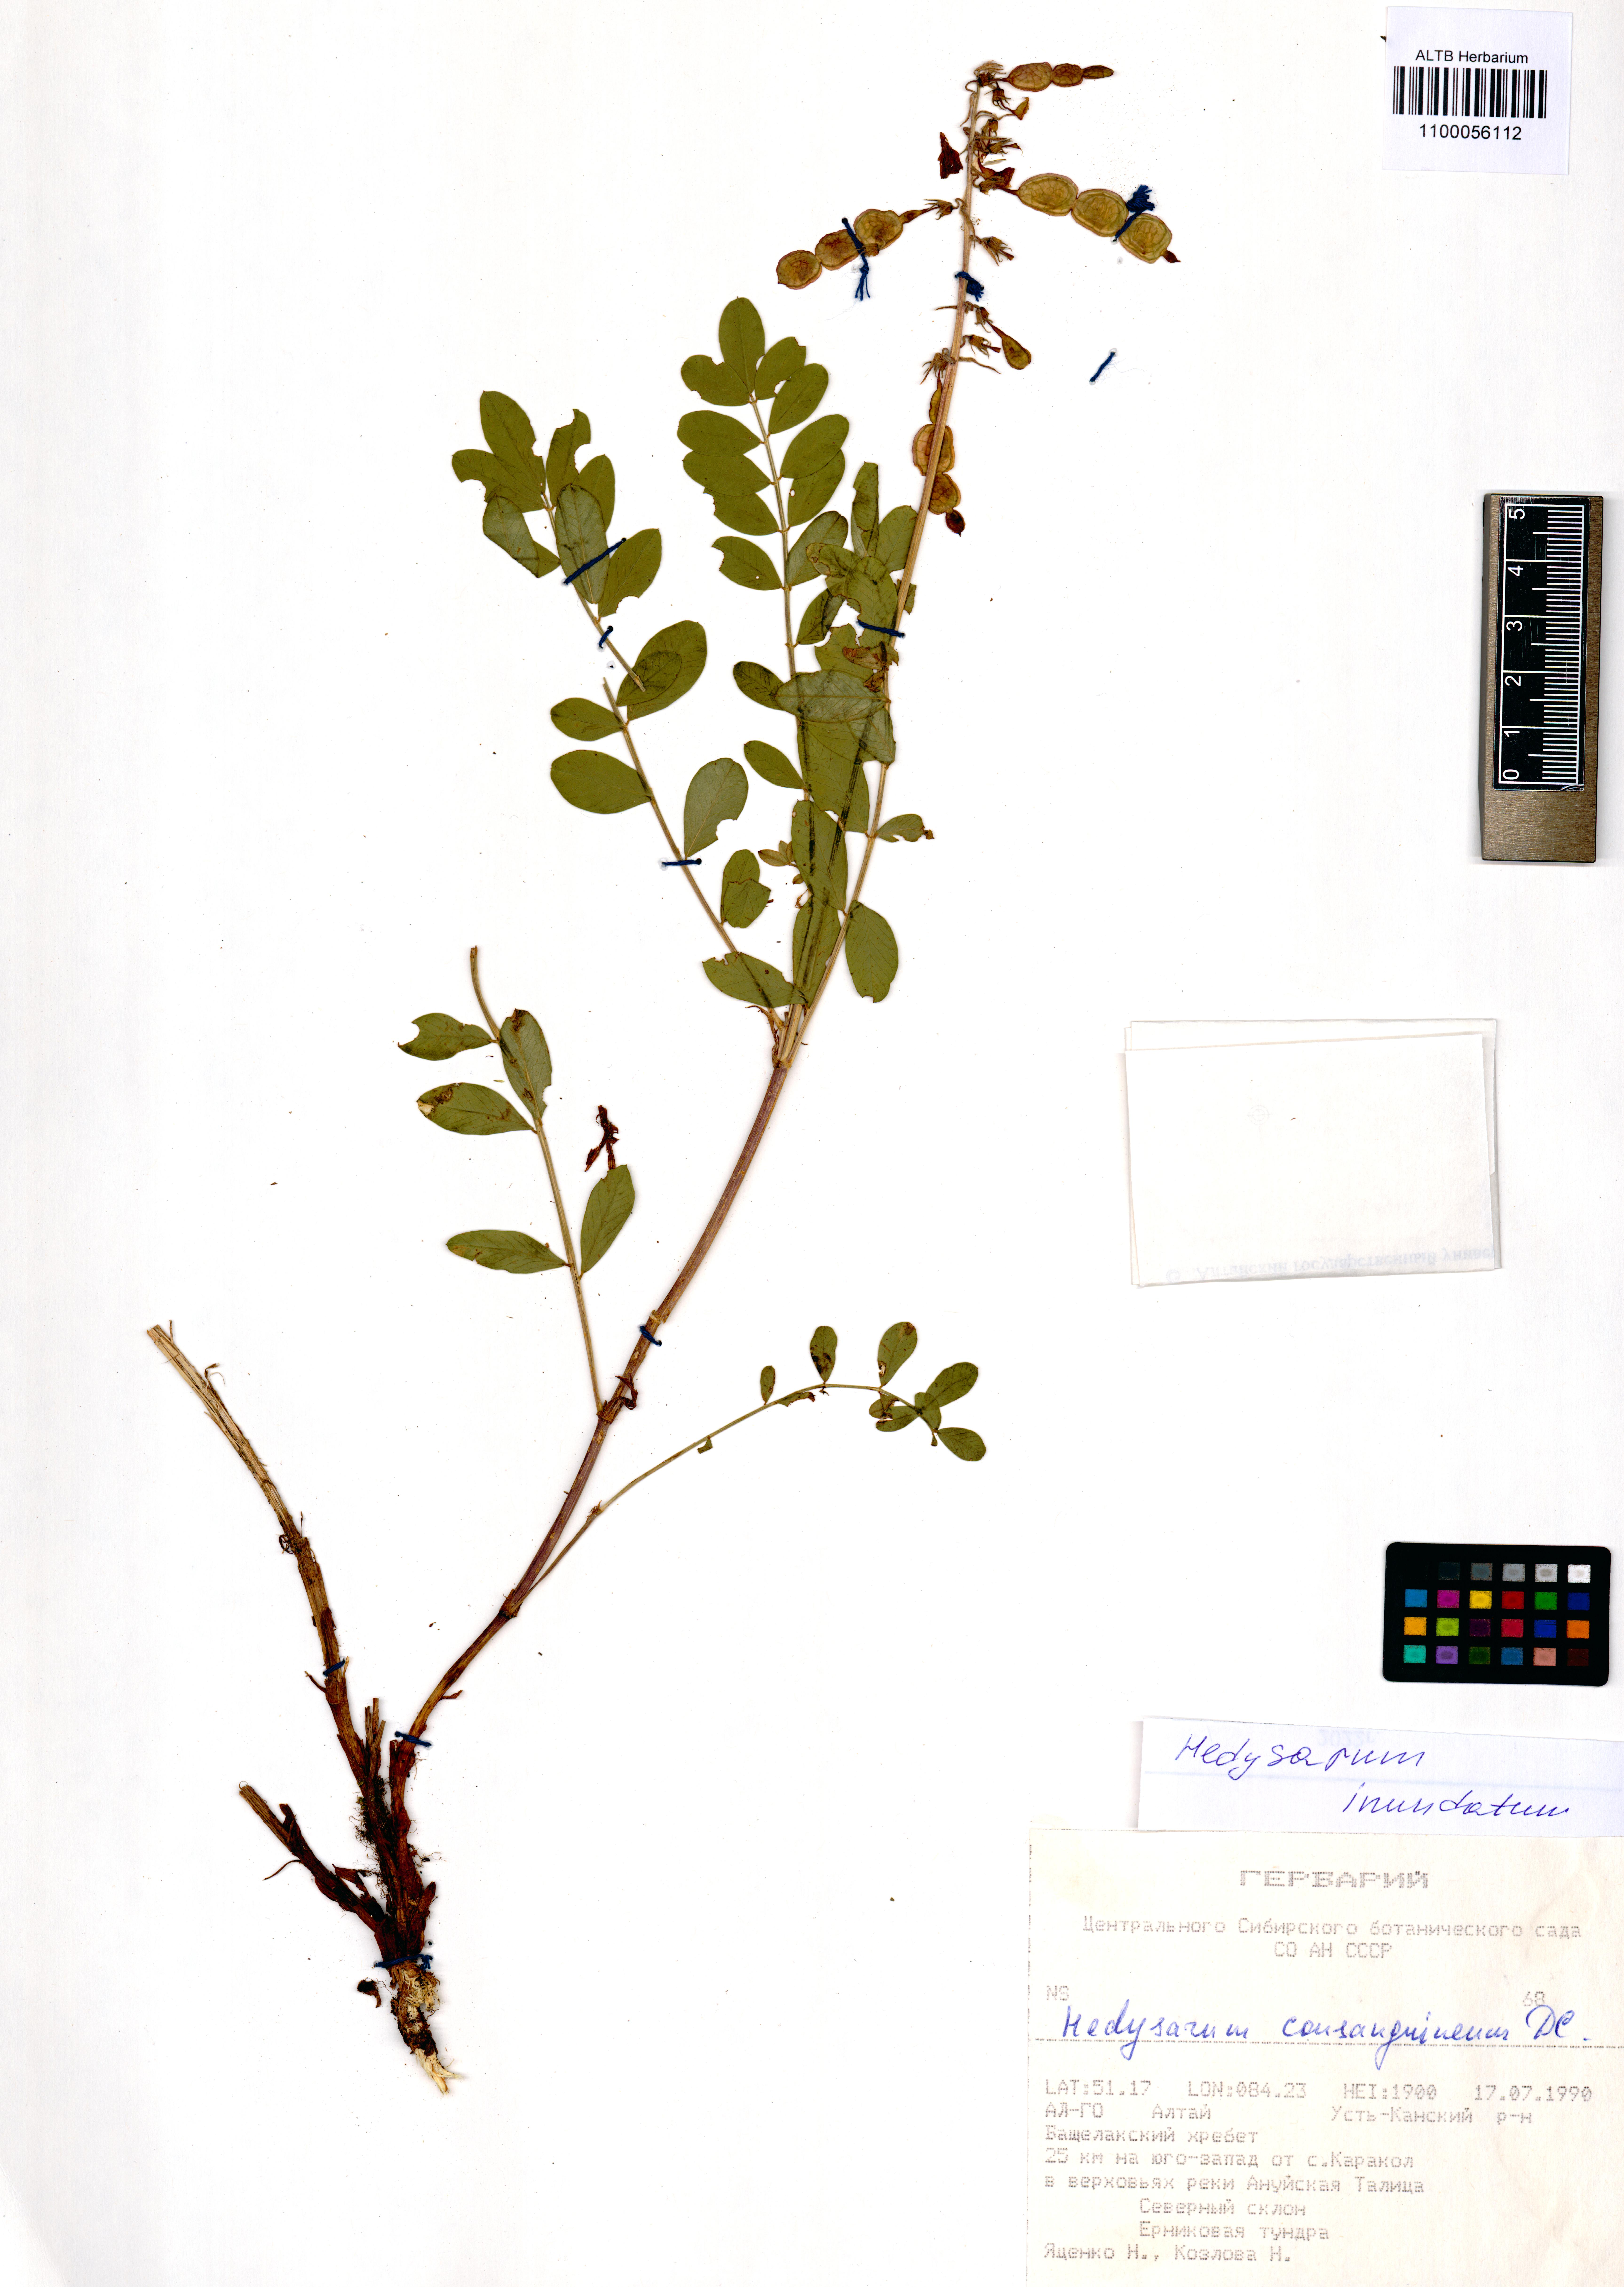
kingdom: Plantae
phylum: Tracheophyta
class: Magnoliopsida
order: Fabales
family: Fabaceae
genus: Hedysarum
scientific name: Hedysarum inundatum
